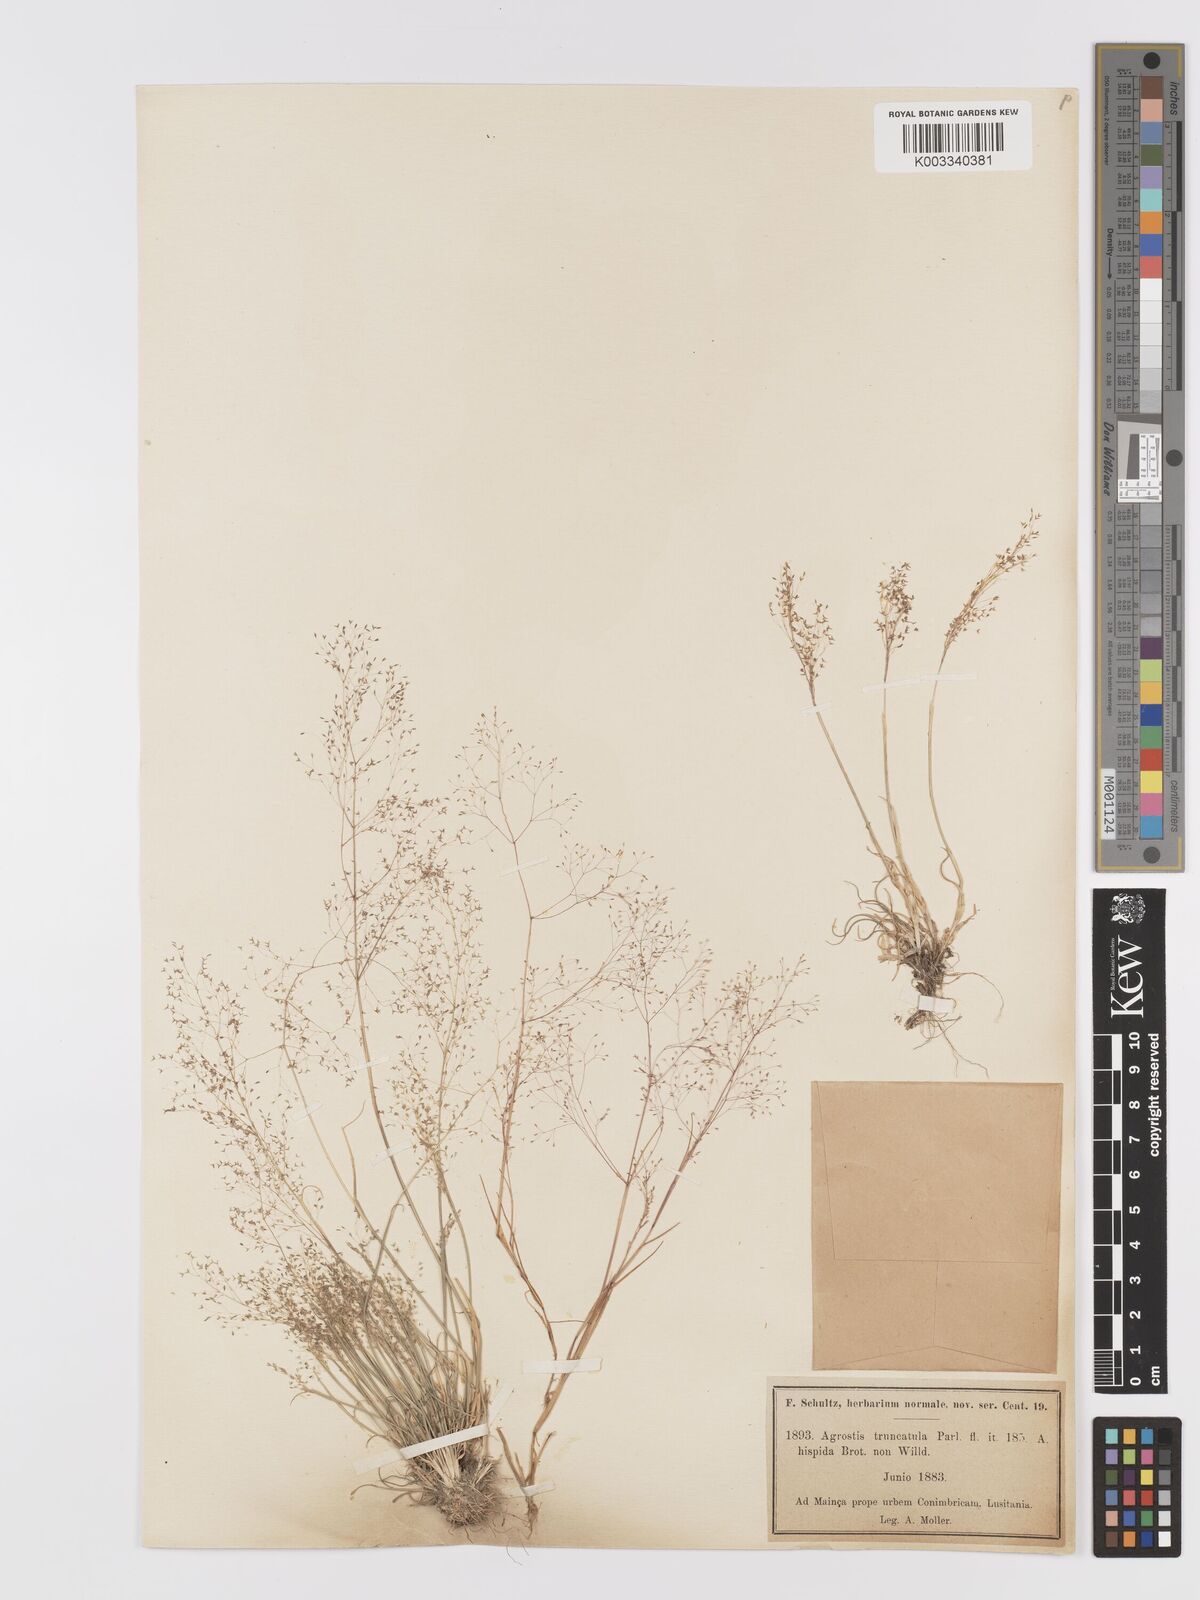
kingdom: Plantae
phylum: Tracheophyta
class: Liliopsida
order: Poales
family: Poaceae
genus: Agrostis
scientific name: Agrostis castellana
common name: Highland bent
